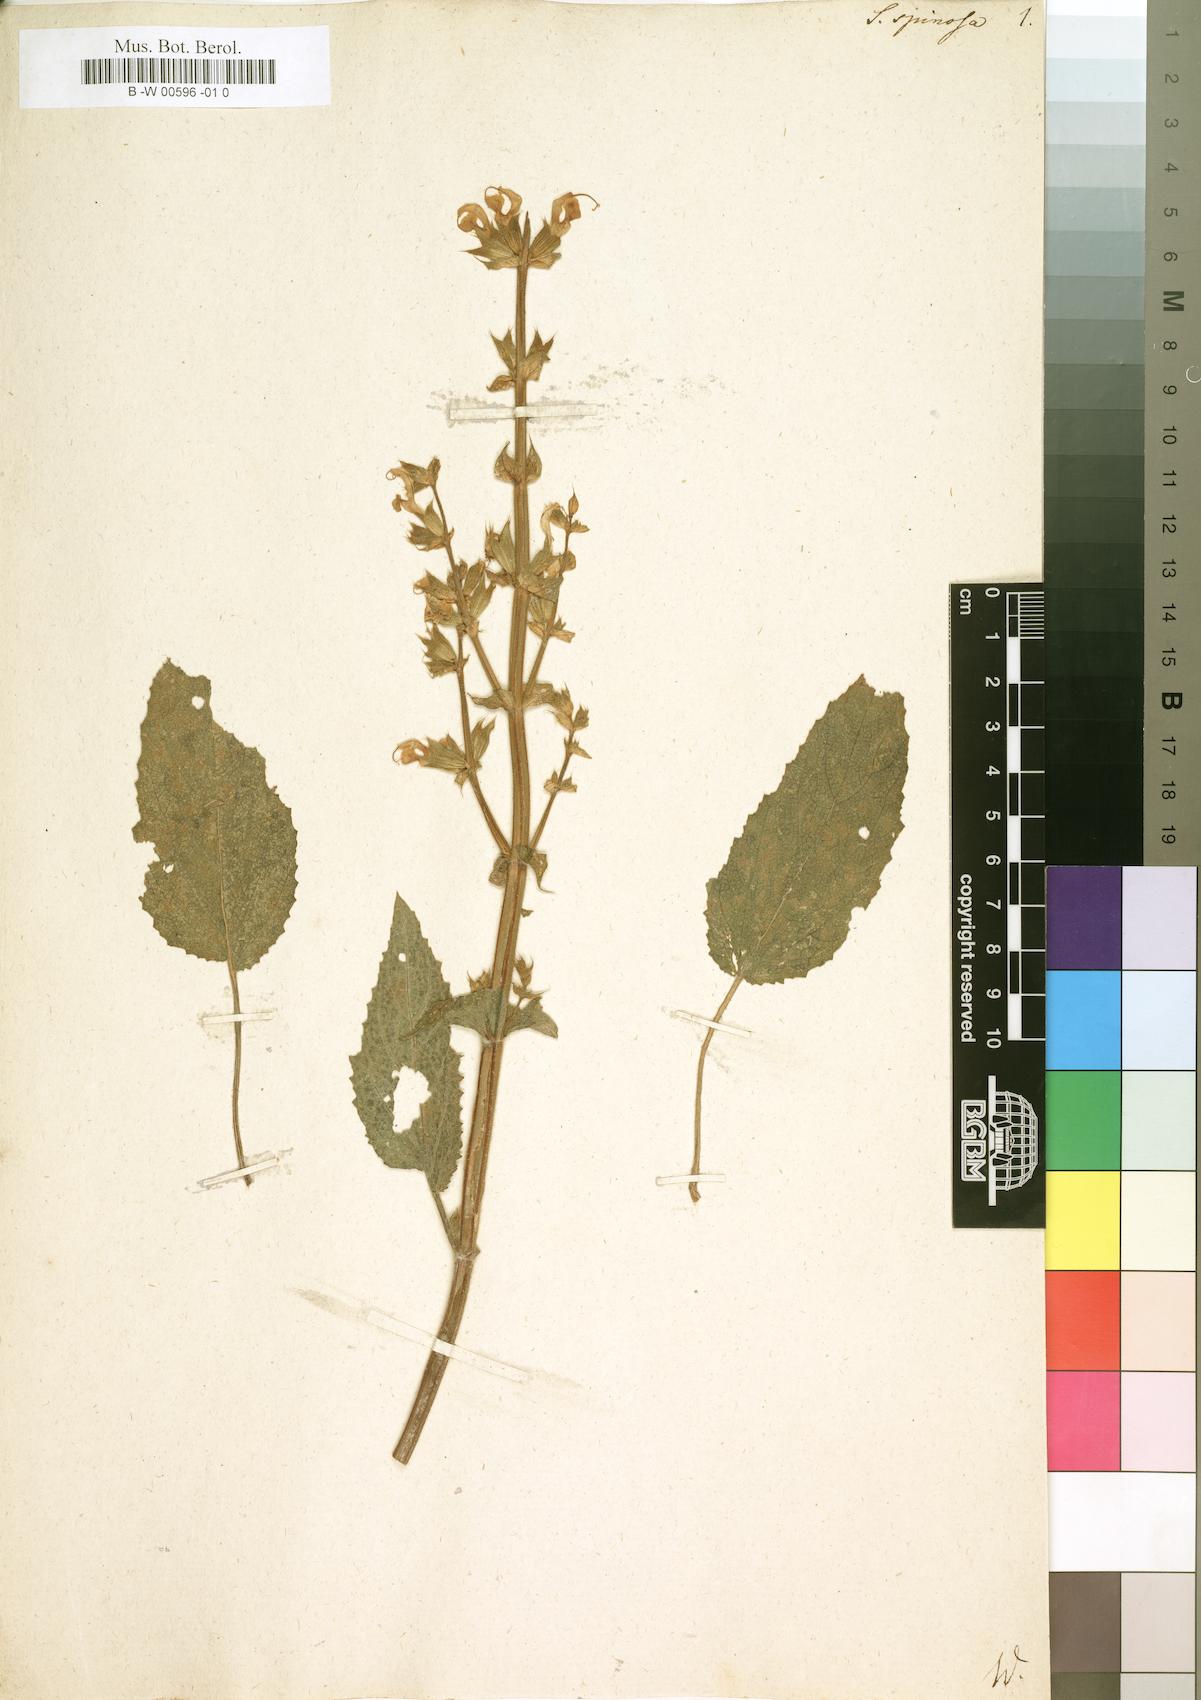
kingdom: Plantae
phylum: Tracheophyta
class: Magnoliopsida
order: Lamiales
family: Lamiaceae
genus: Salvia
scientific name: Salvia spinosa
